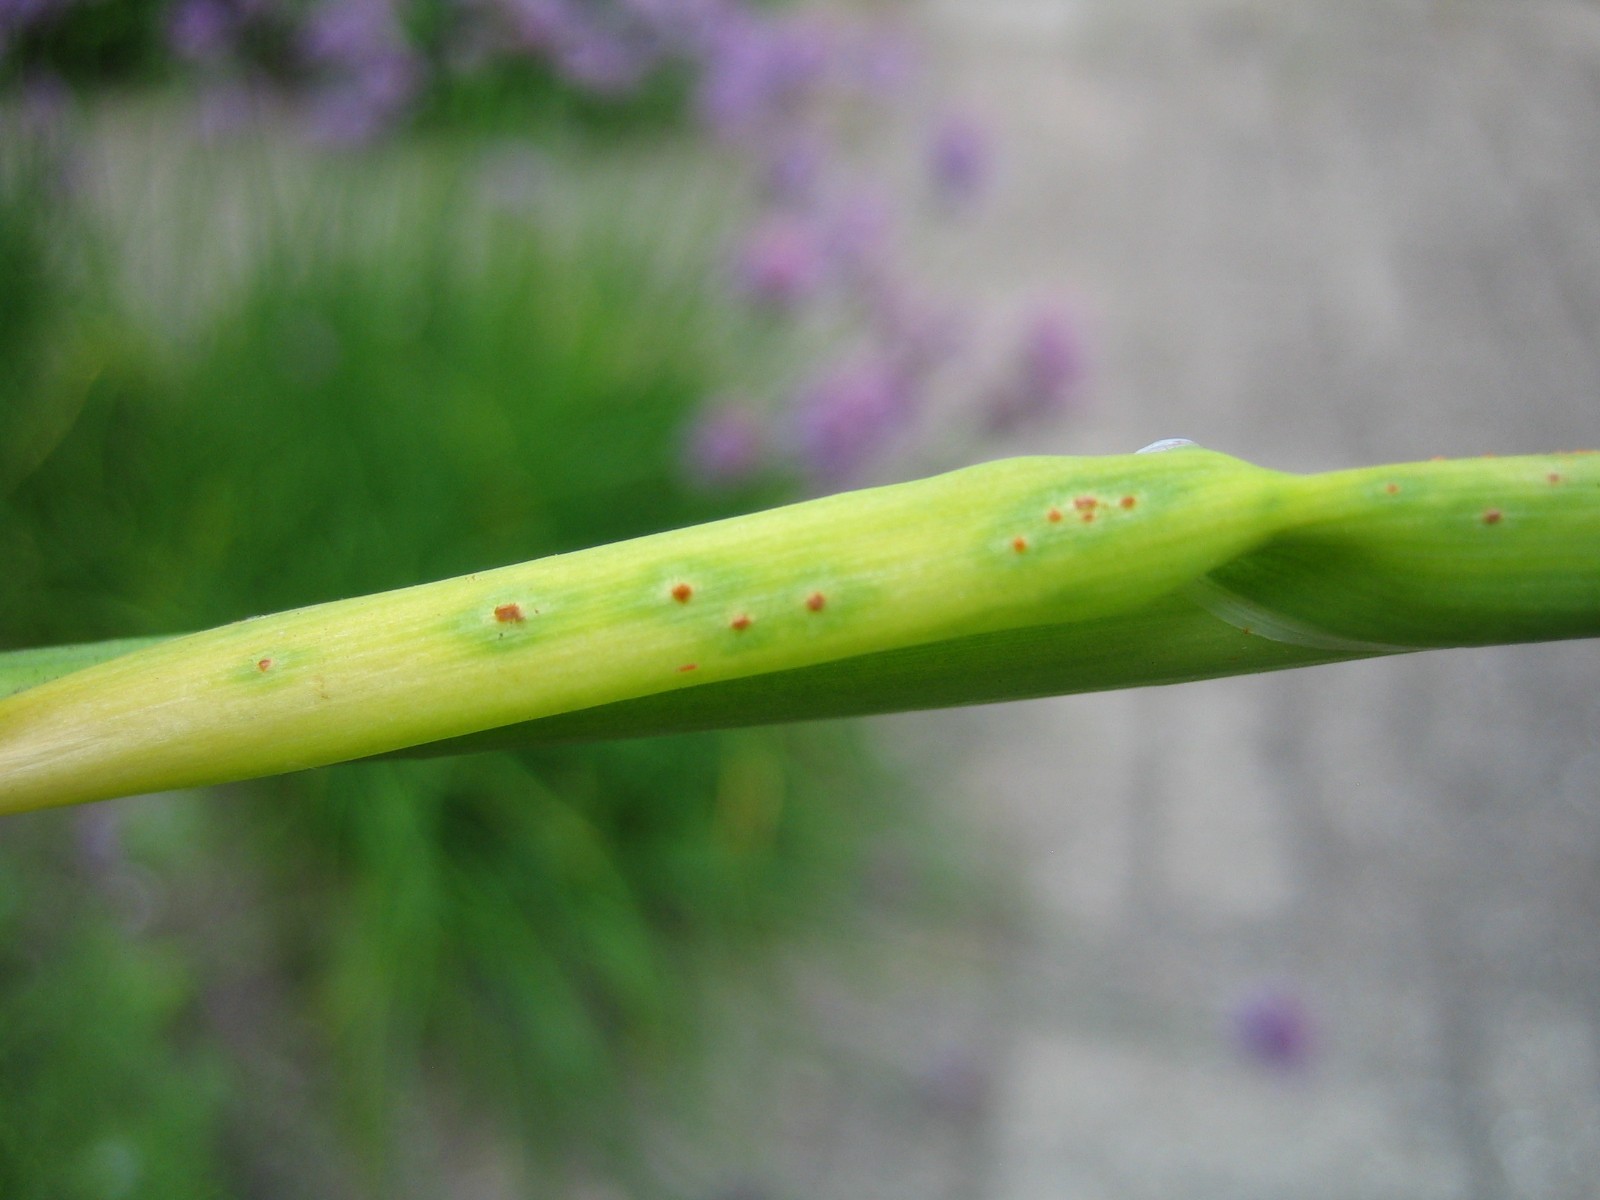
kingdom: Fungi
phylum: Basidiomycota
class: Pucciniomycetes
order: Pucciniales
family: Pucciniaceae
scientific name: Pucciniaceae
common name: rustsvampfamilien
